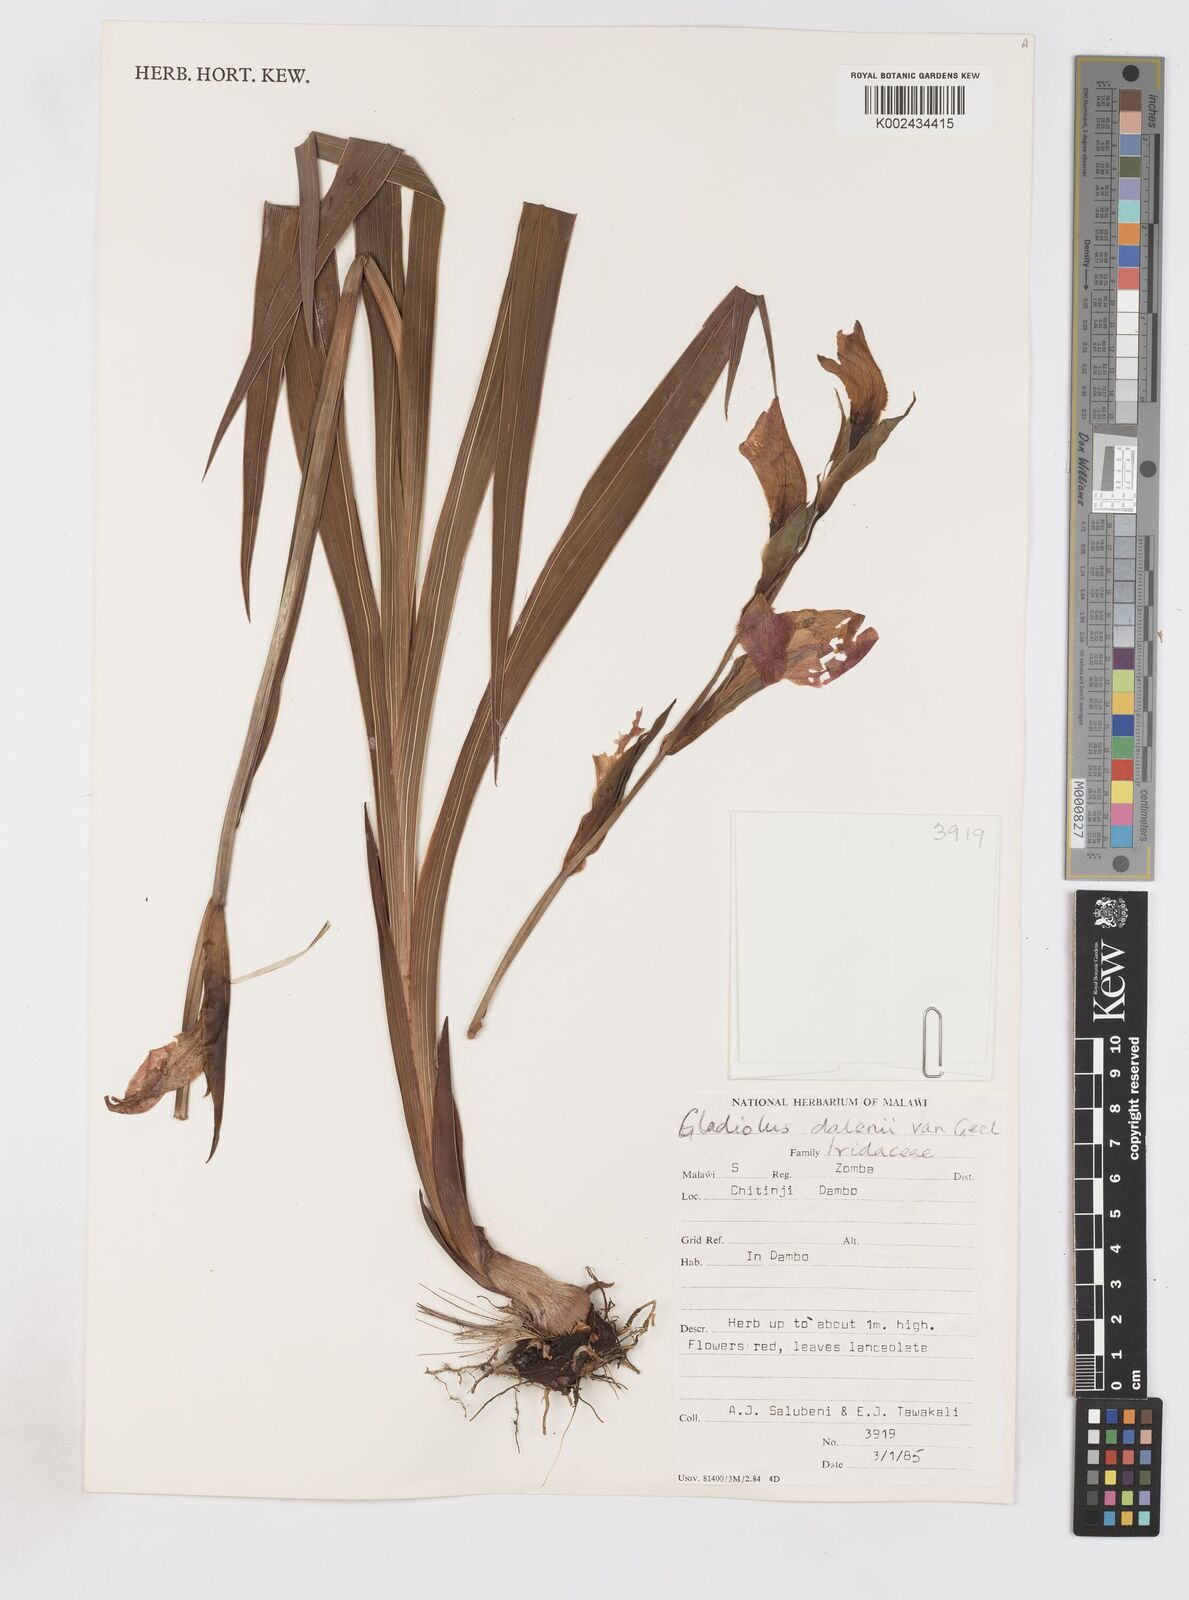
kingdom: Plantae
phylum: Tracheophyta
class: Liliopsida
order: Asparagales
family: Iridaceae
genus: Gladiolus
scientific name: Gladiolus dalenii
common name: Cornflag
